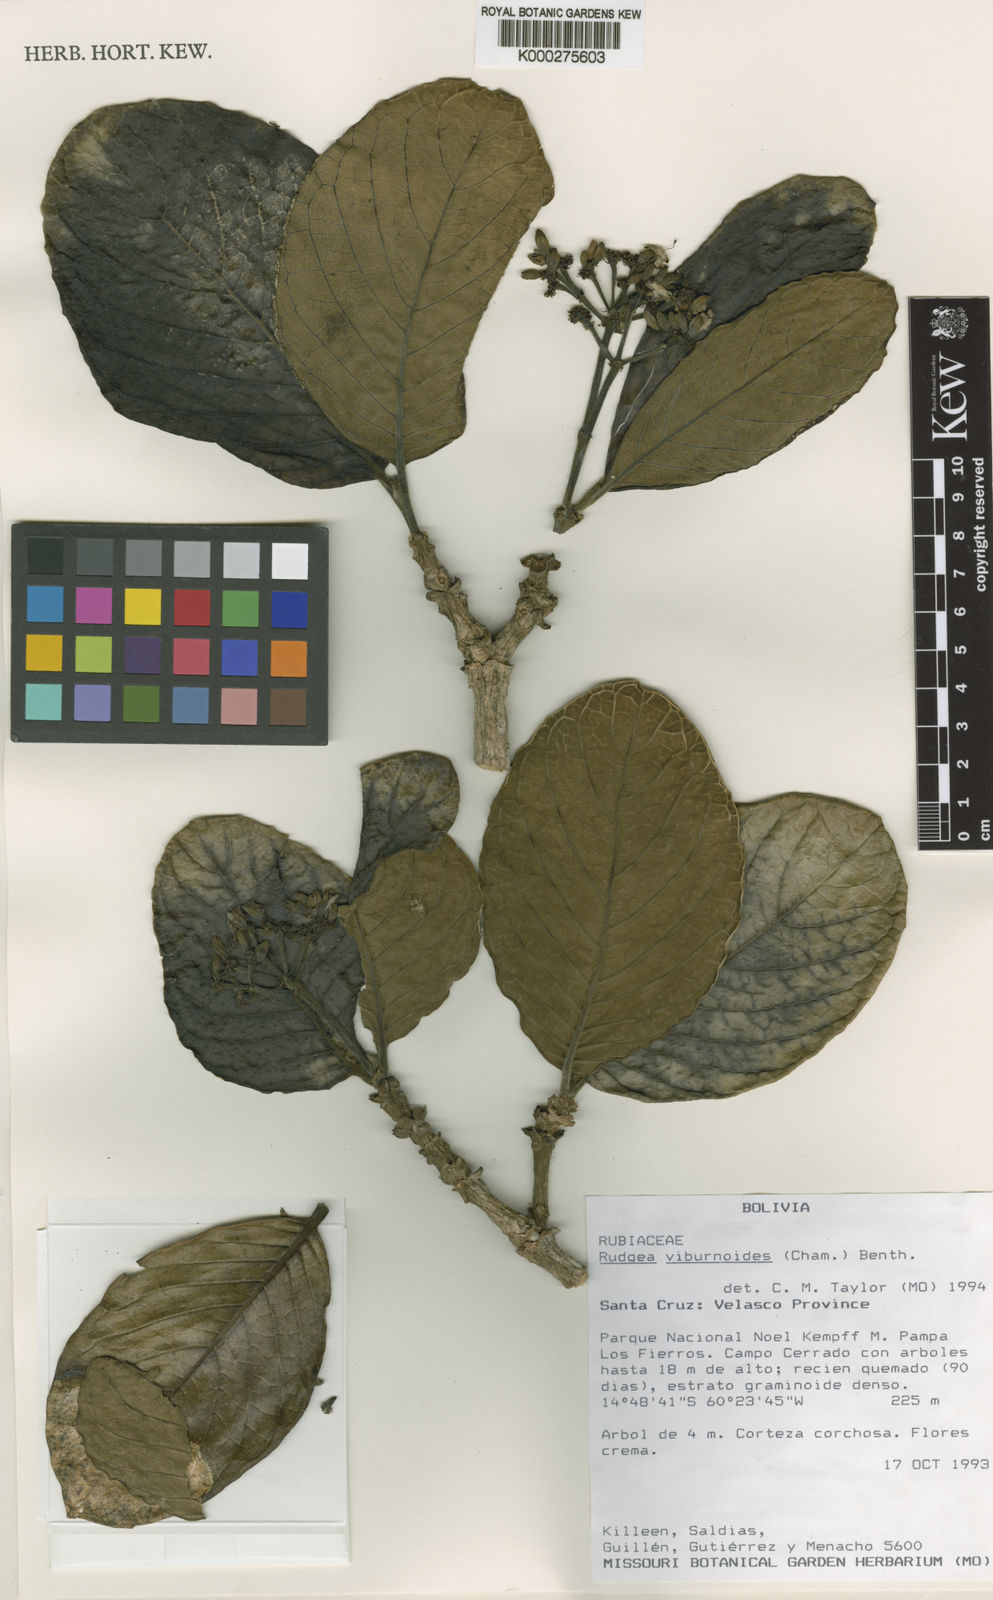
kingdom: Plantae
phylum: Tracheophyta
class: Magnoliopsida
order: Gentianales
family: Rubiaceae
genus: Rudgea
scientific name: Rudgea viburnoides
